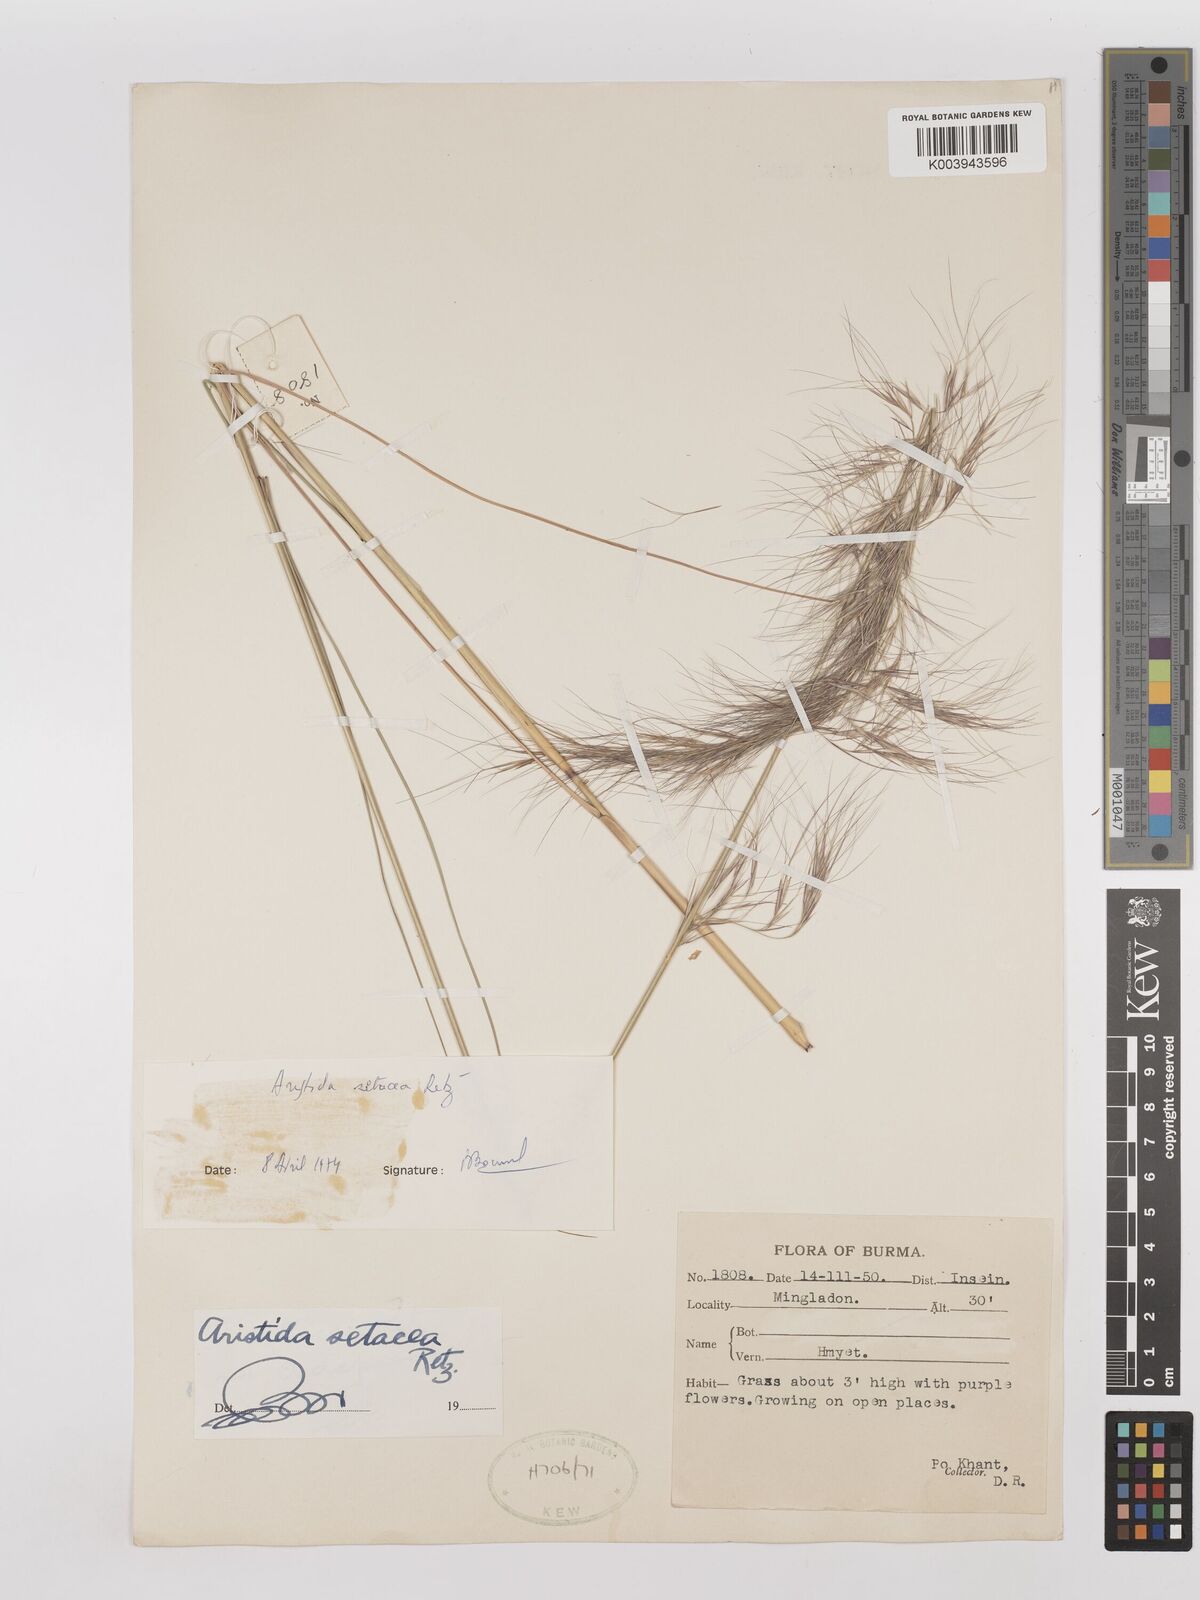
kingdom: Plantae
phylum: Tracheophyta
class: Liliopsida
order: Poales
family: Poaceae
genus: Aristida
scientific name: Aristida setacea
